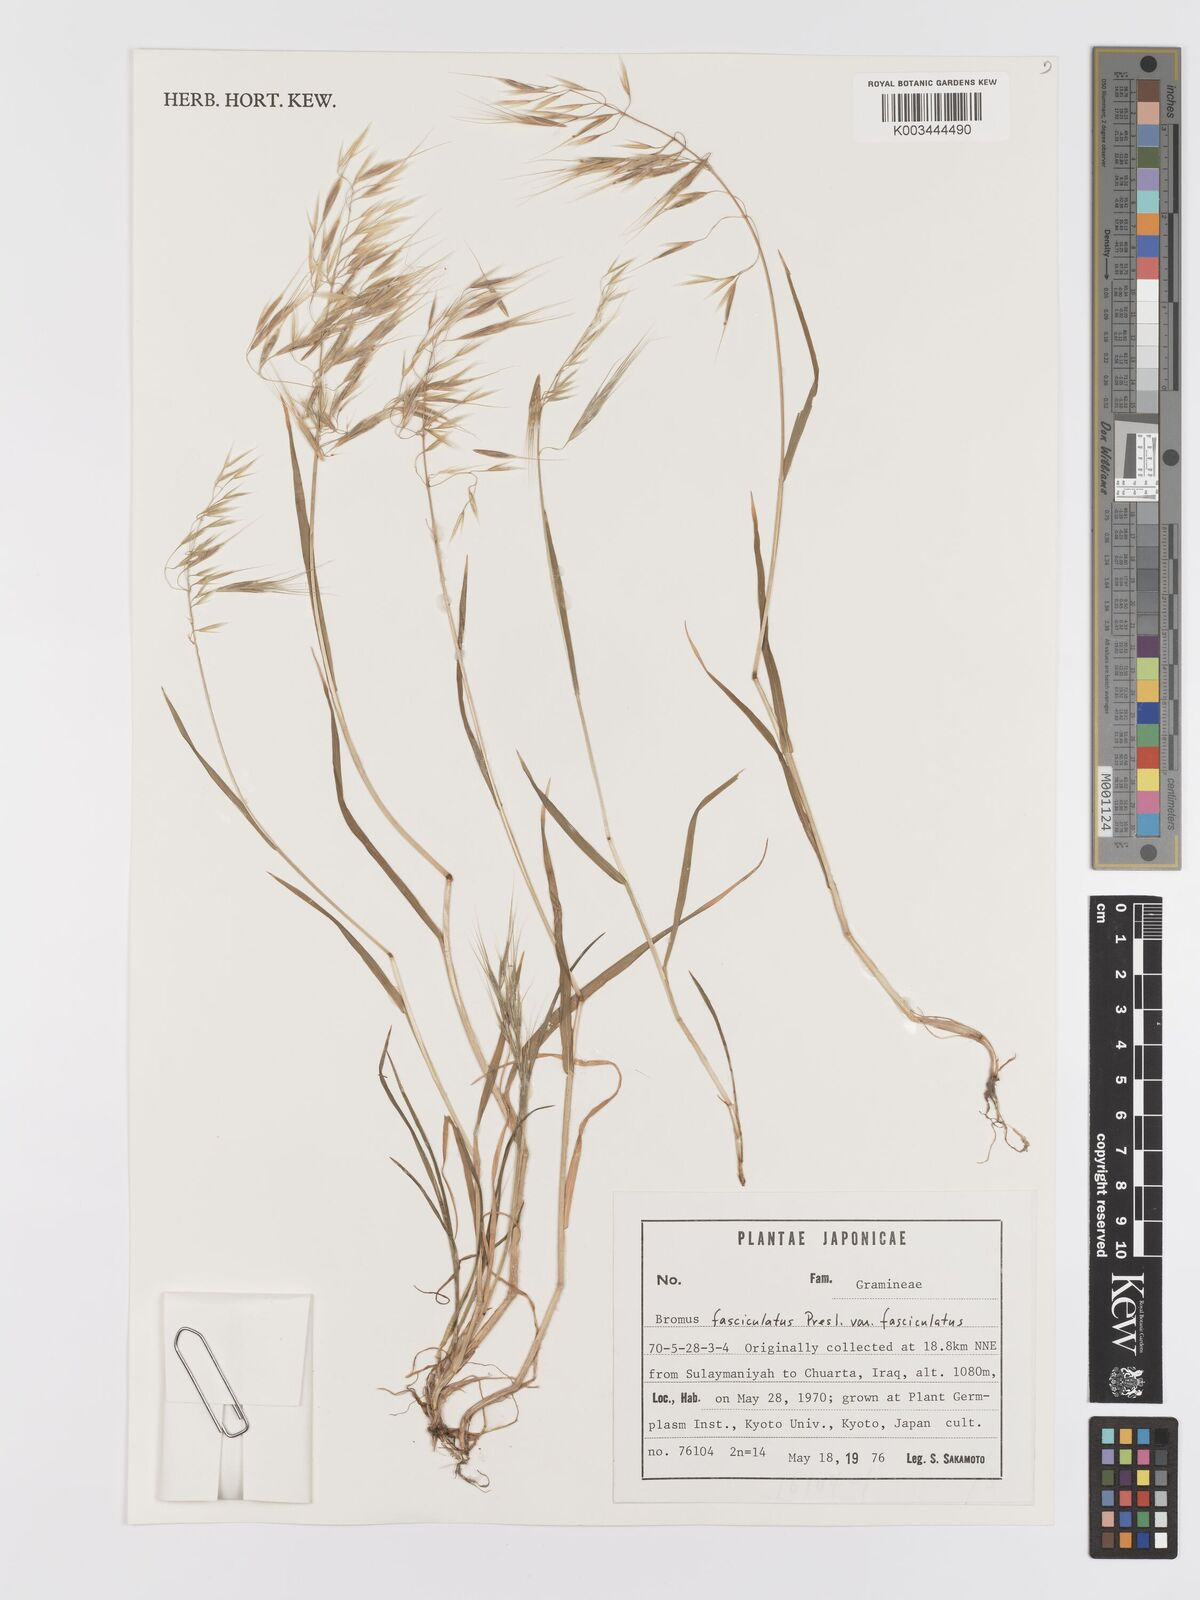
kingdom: Plantae
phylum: Tracheophyta
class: Liliopsida
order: Poales
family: Poaceae
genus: Bromus
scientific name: Bromus fasciculatus
